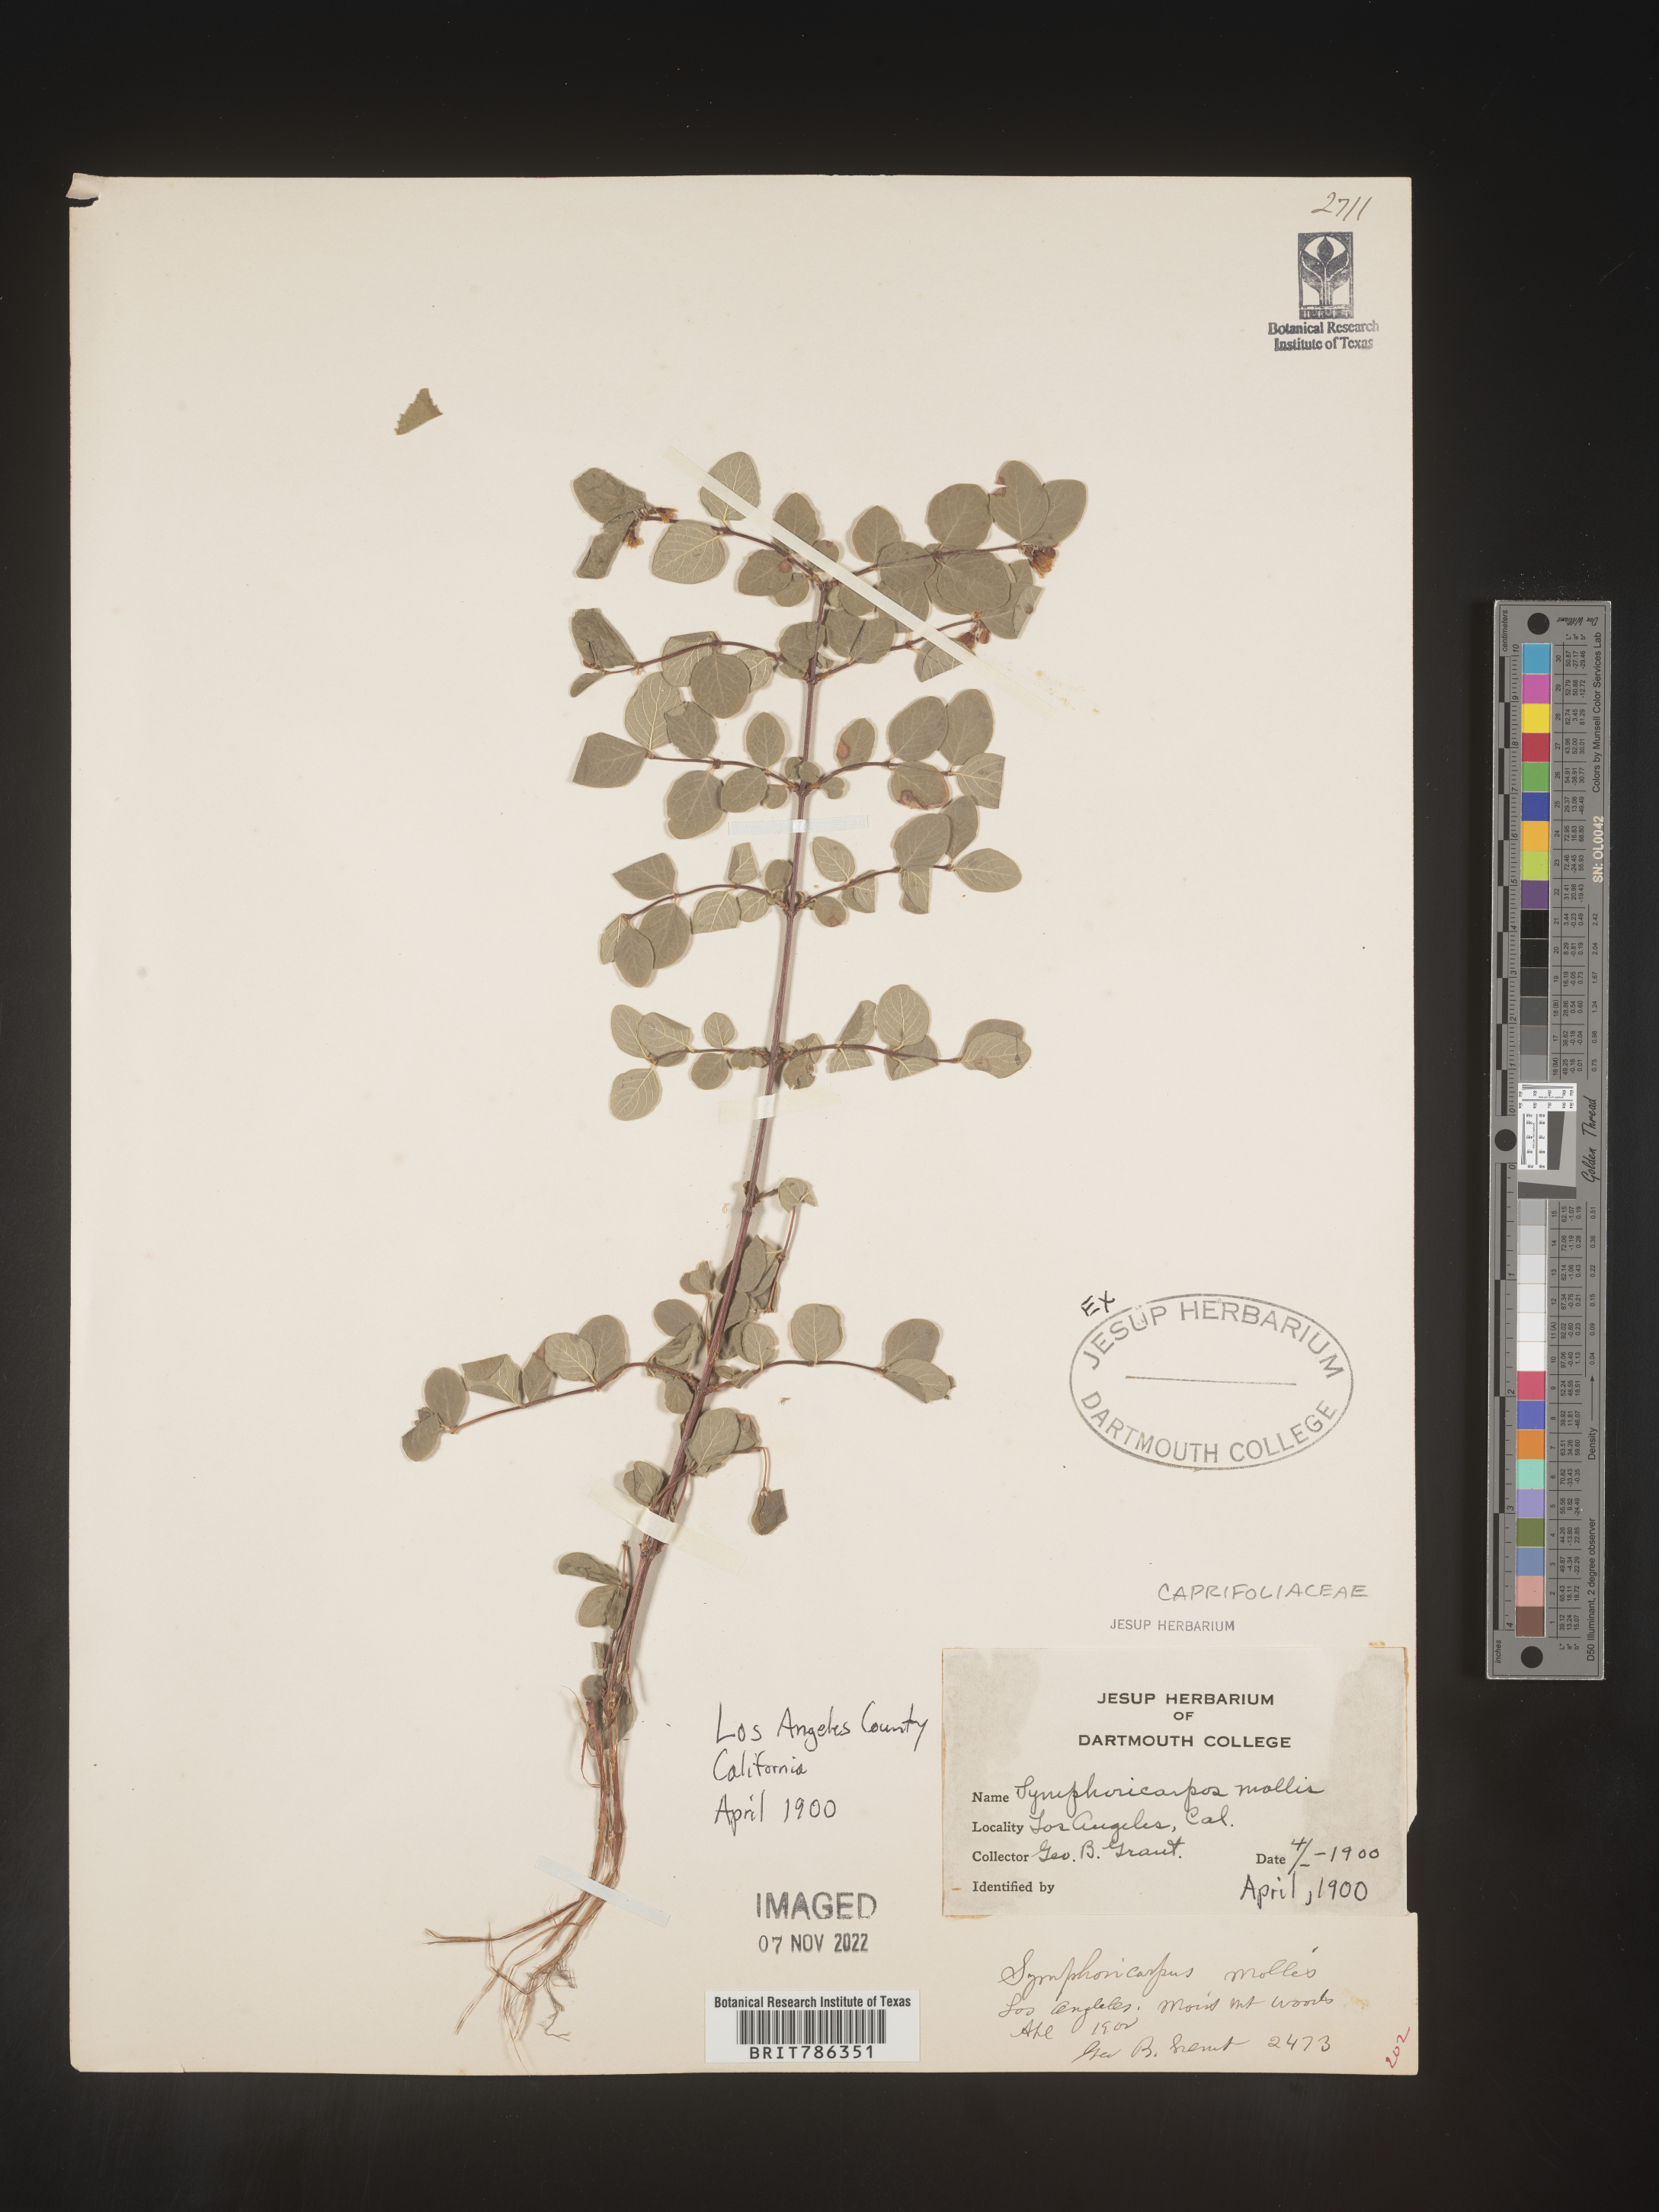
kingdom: Plantae
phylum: Tracheophyta
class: Magnoliopsida
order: Dipsacales
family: Caprifoliaceae
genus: Symphoricarpos
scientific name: Symphoricarpos
